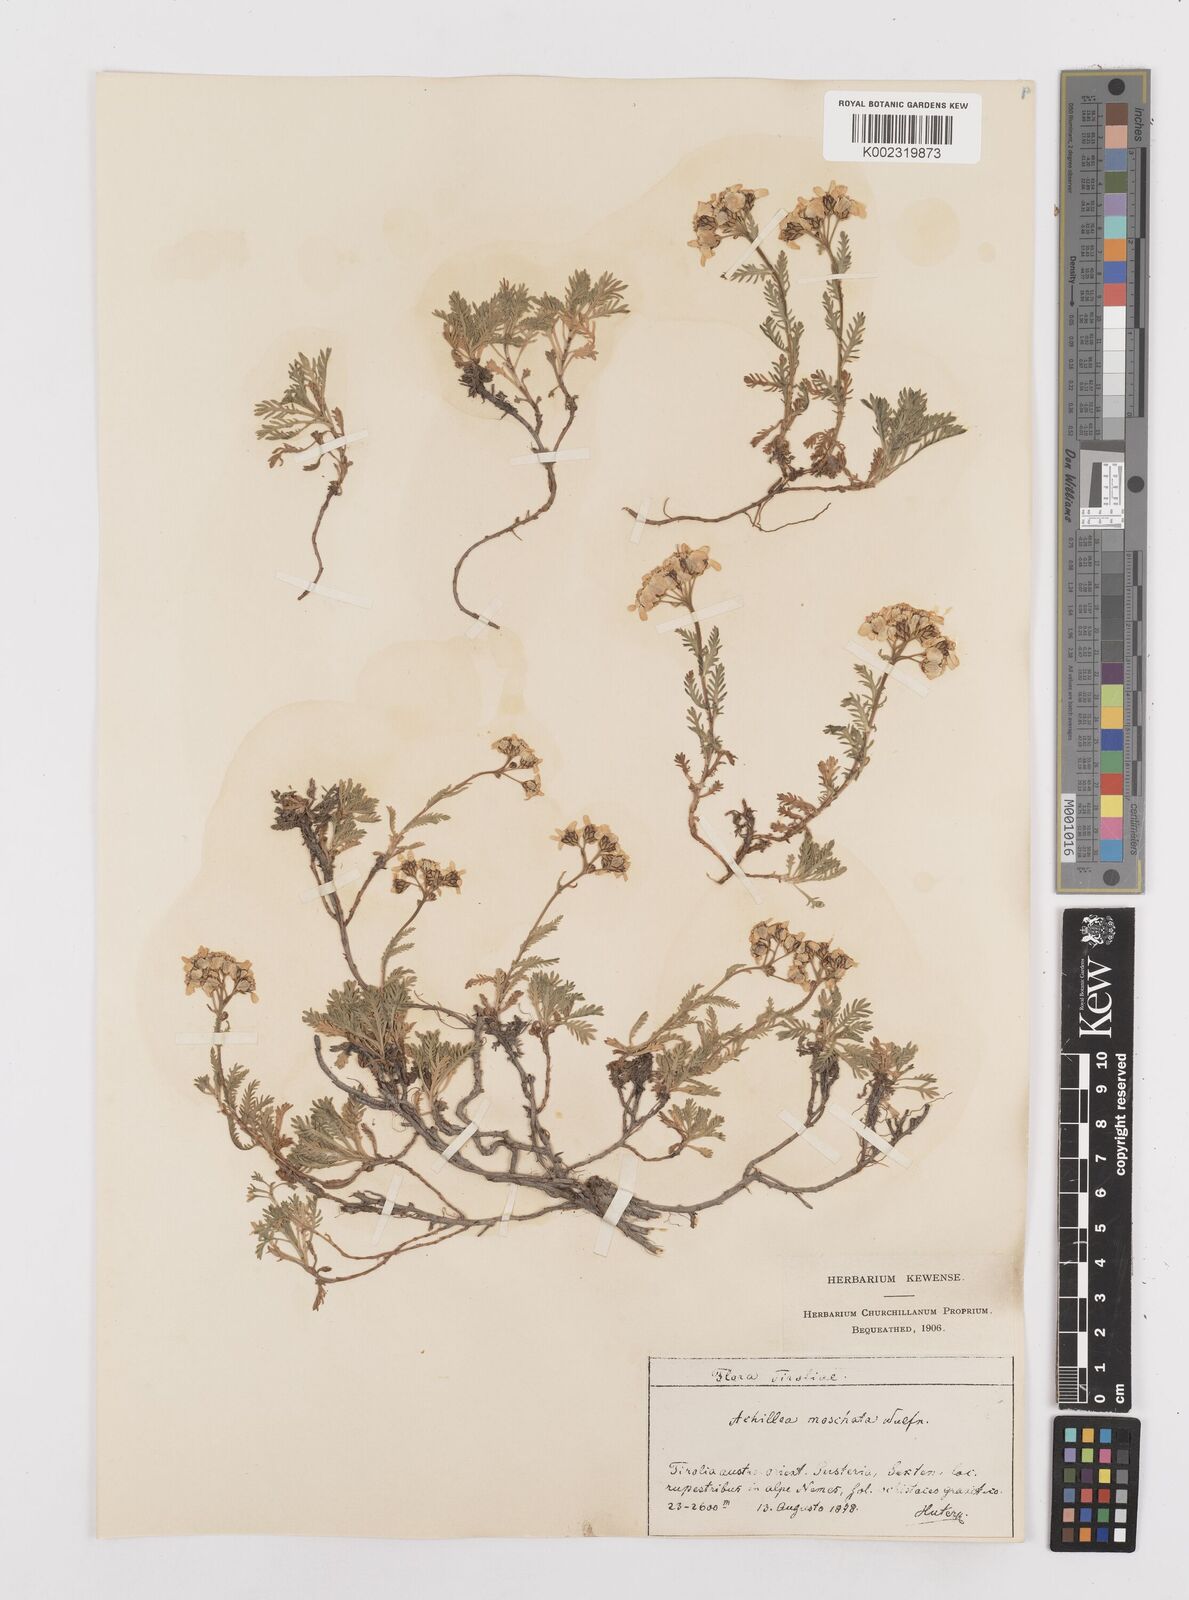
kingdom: Plantae
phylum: Tracheophyta
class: Magnoliopsida
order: Asterales
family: Asteraceae
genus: Achillea
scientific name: Achillea erba-rotta
